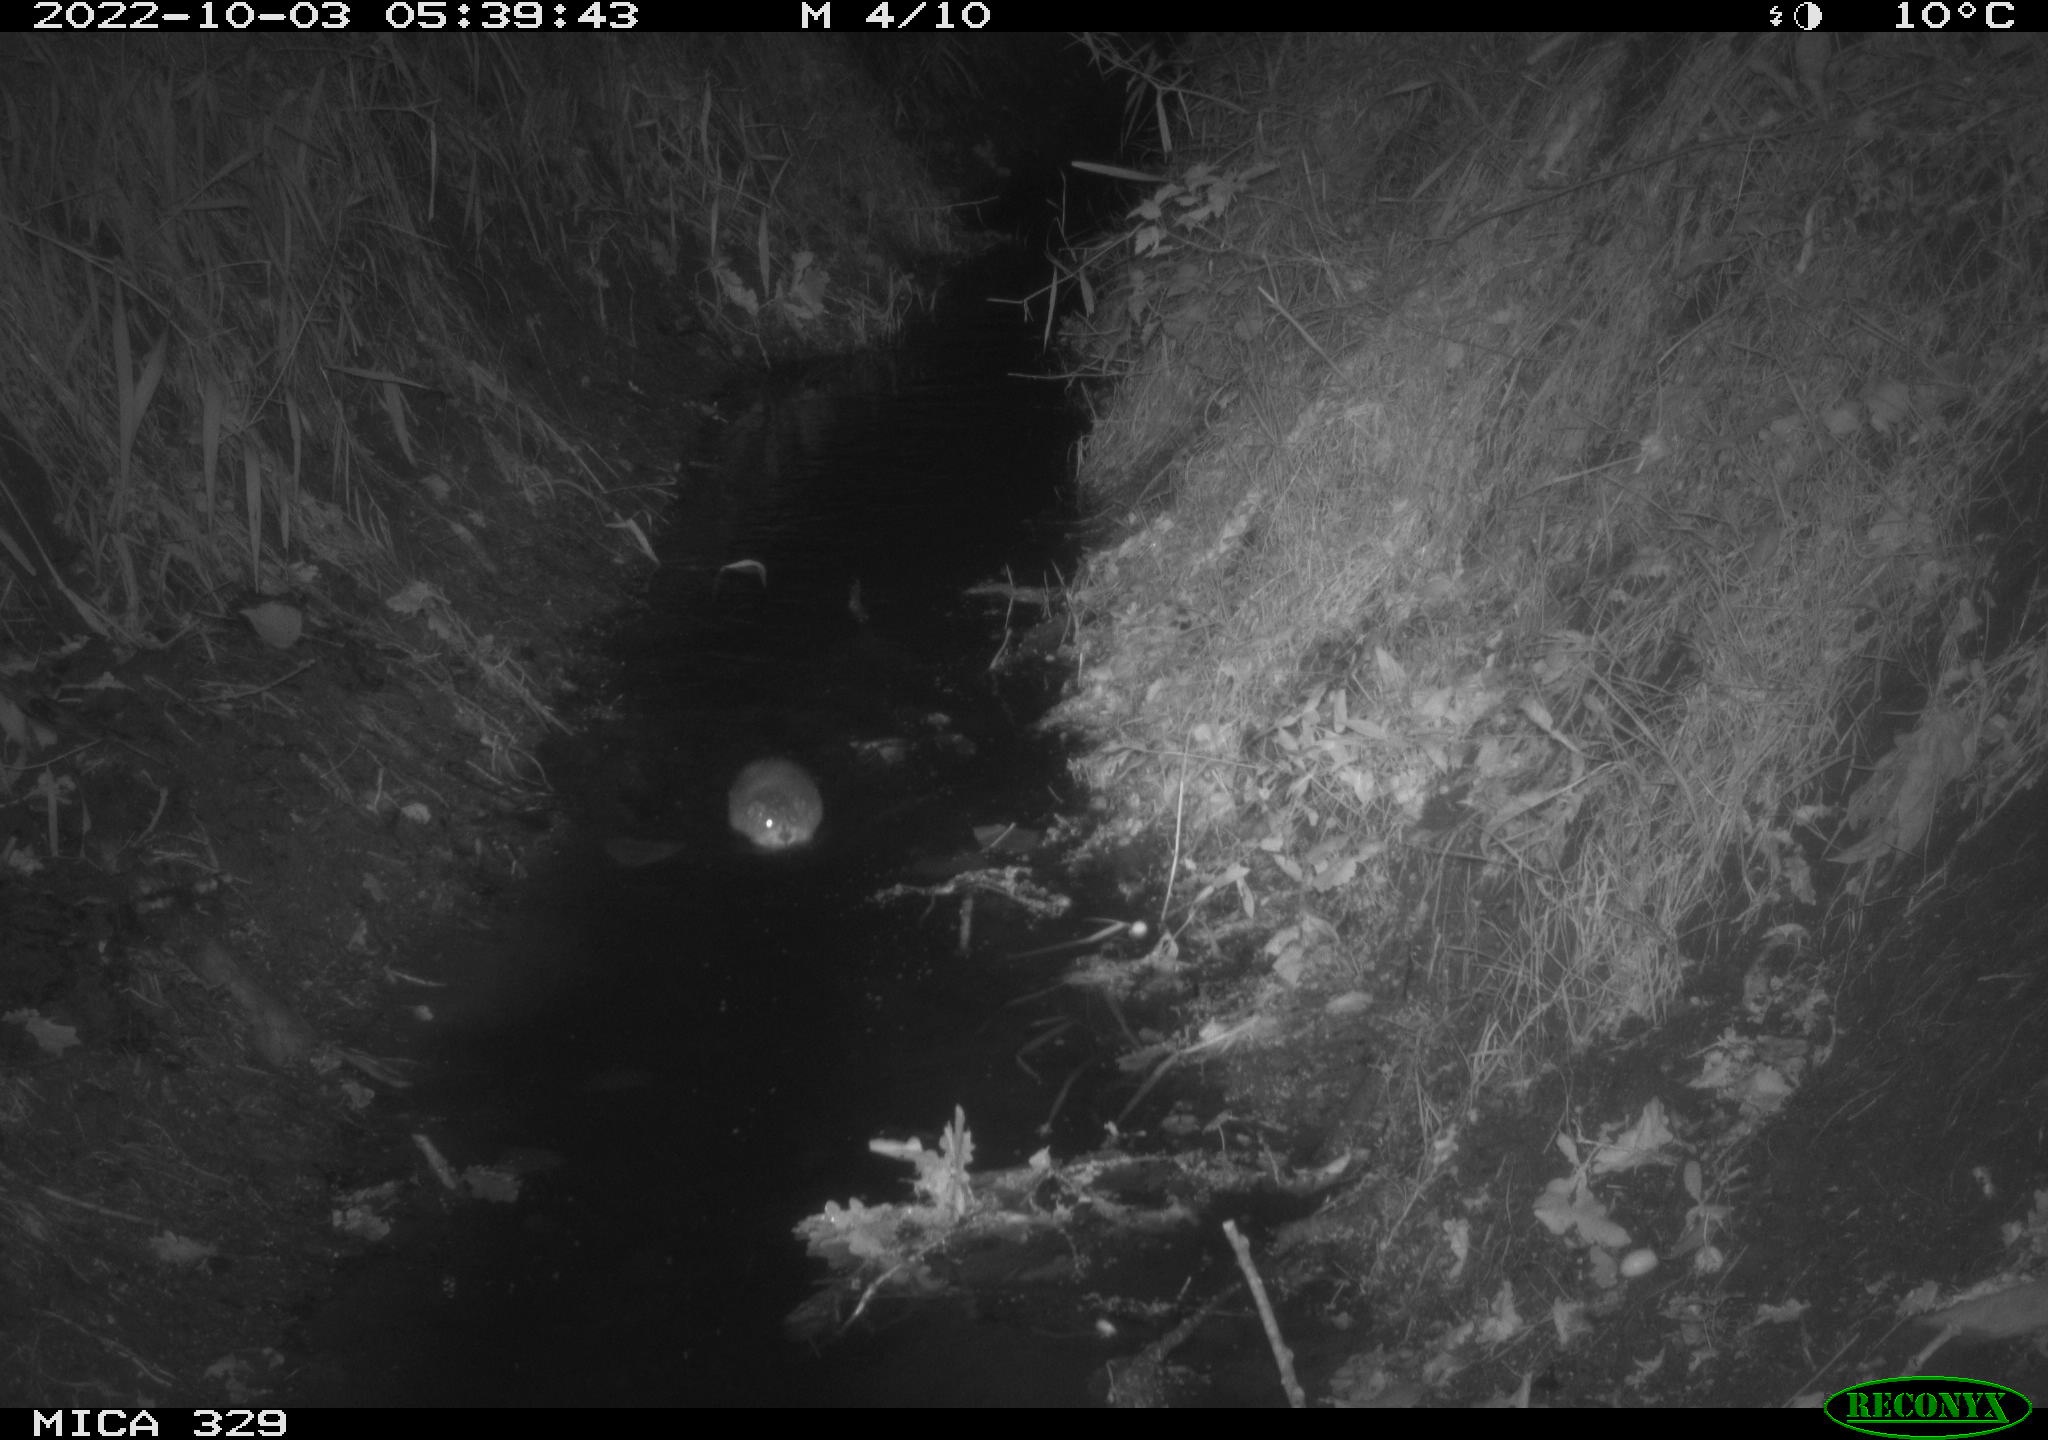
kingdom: Animalia
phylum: Chordata
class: Mammalia
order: Rodentia
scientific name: Rodentia
